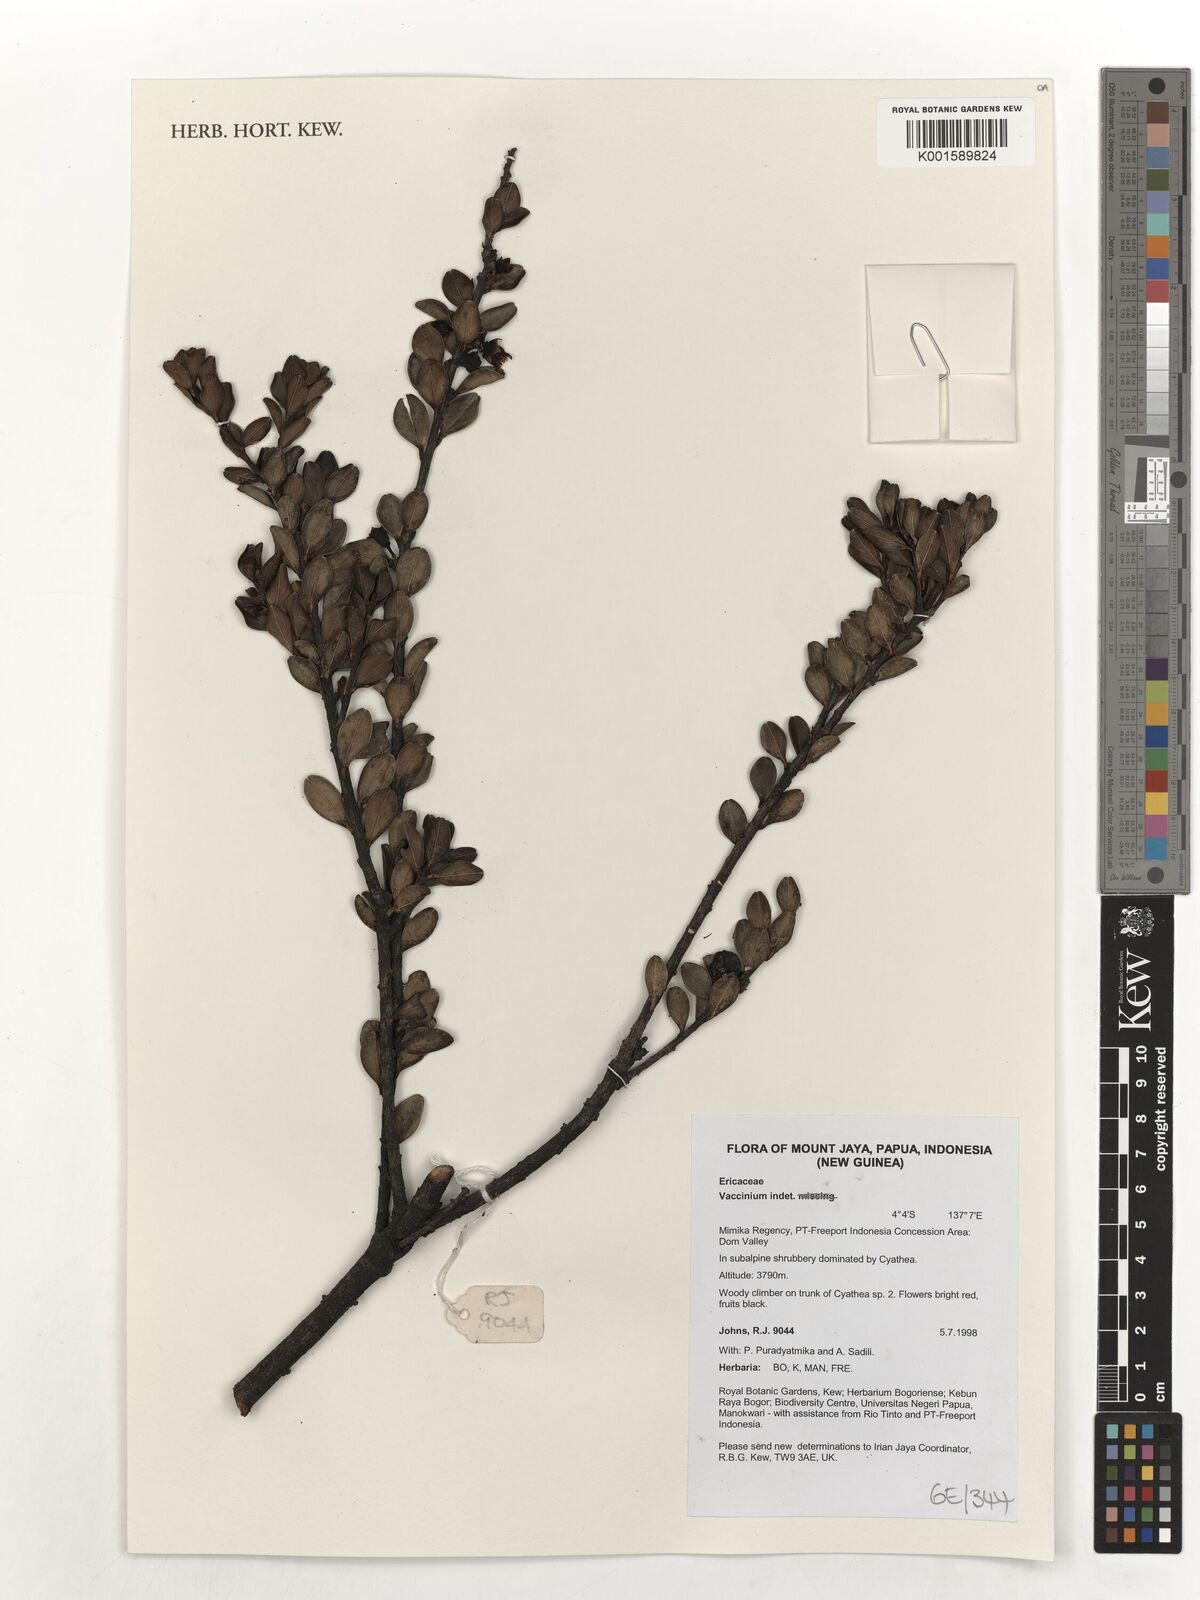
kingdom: Plantae
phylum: Tracheophyta
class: Magnoliopsida
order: Ericales
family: Ericaceae
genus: Vaccinium
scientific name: Vaccinium
